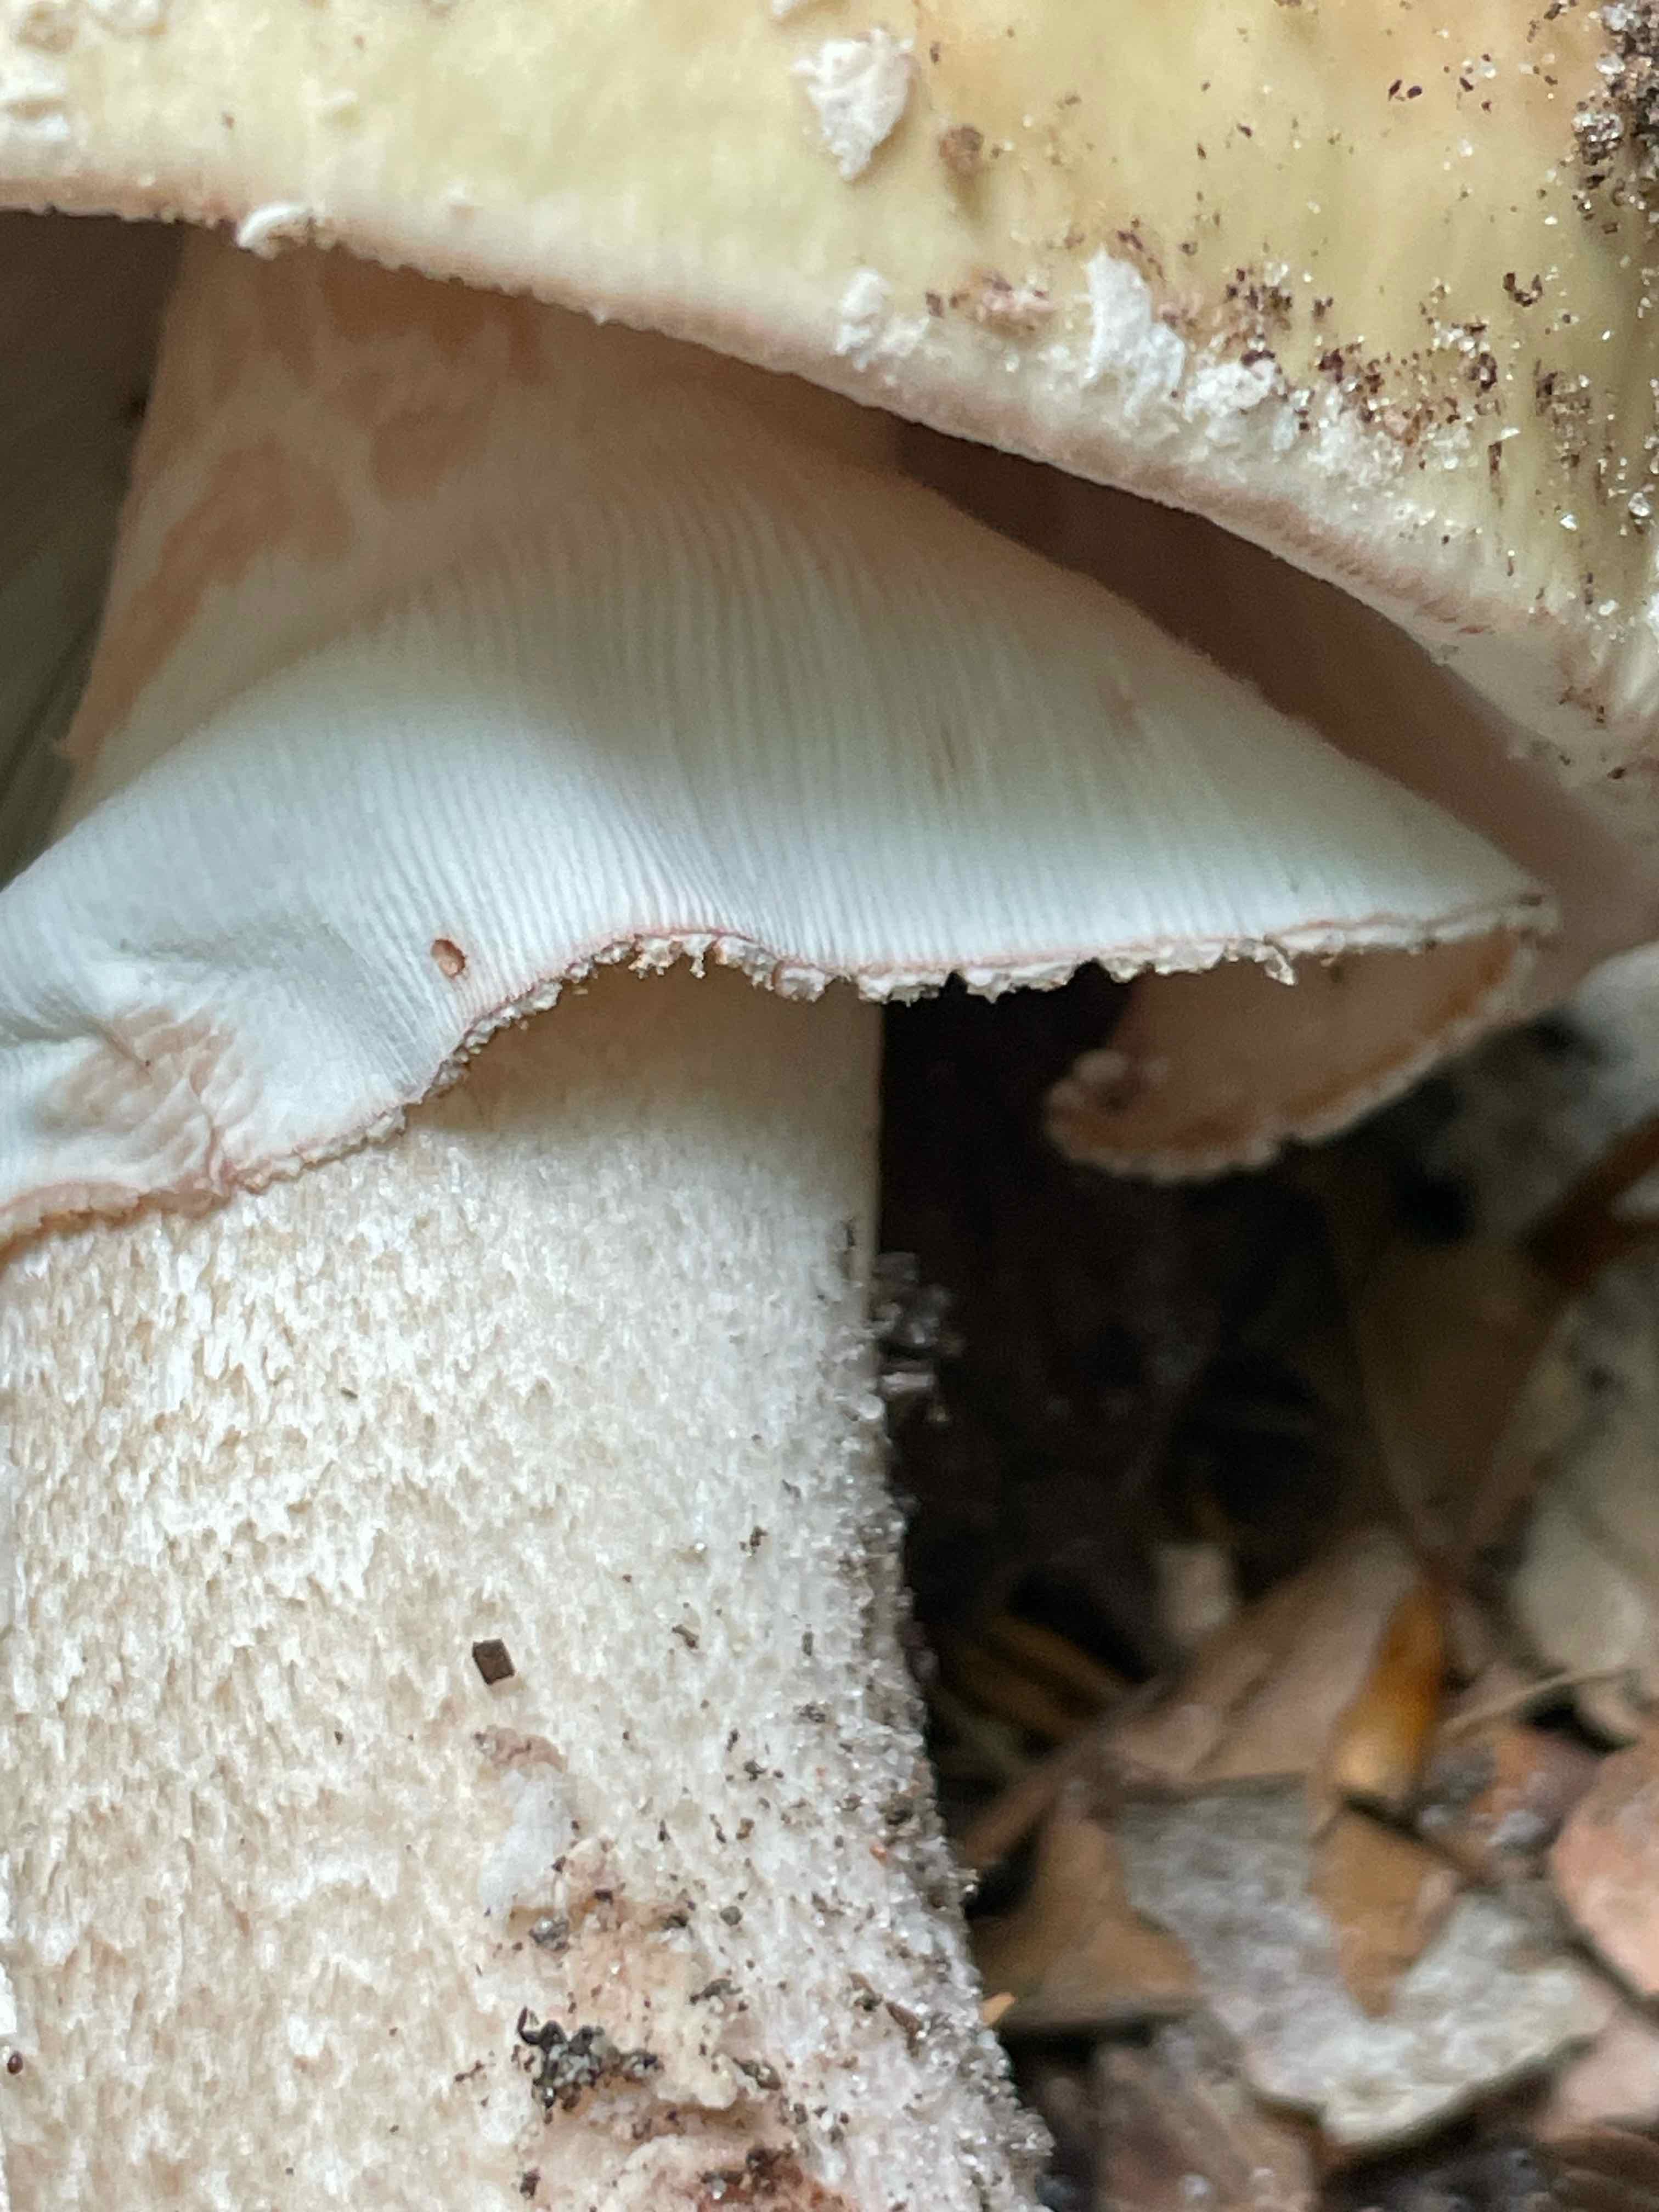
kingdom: Fungi
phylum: Basidiomycota
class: Agaricomycetes
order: Agaricales
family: Amanitaceae
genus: Amanita
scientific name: Amanita rubescens
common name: rødmende fluesvamp
